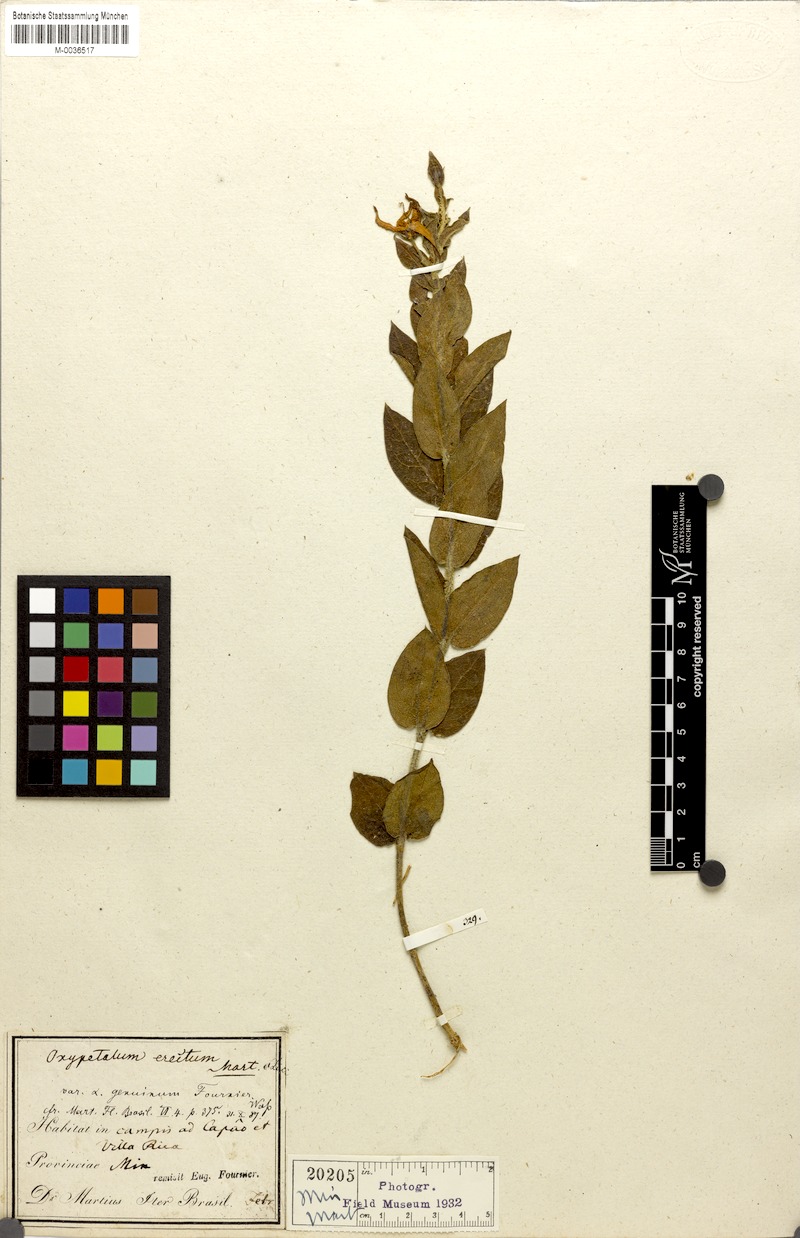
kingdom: Plantae
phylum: Tracheophyta
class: Magnoliopsida
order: Gentianales
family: Apocynaceae
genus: Oxypetalum
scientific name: Oxypetalum erectum
